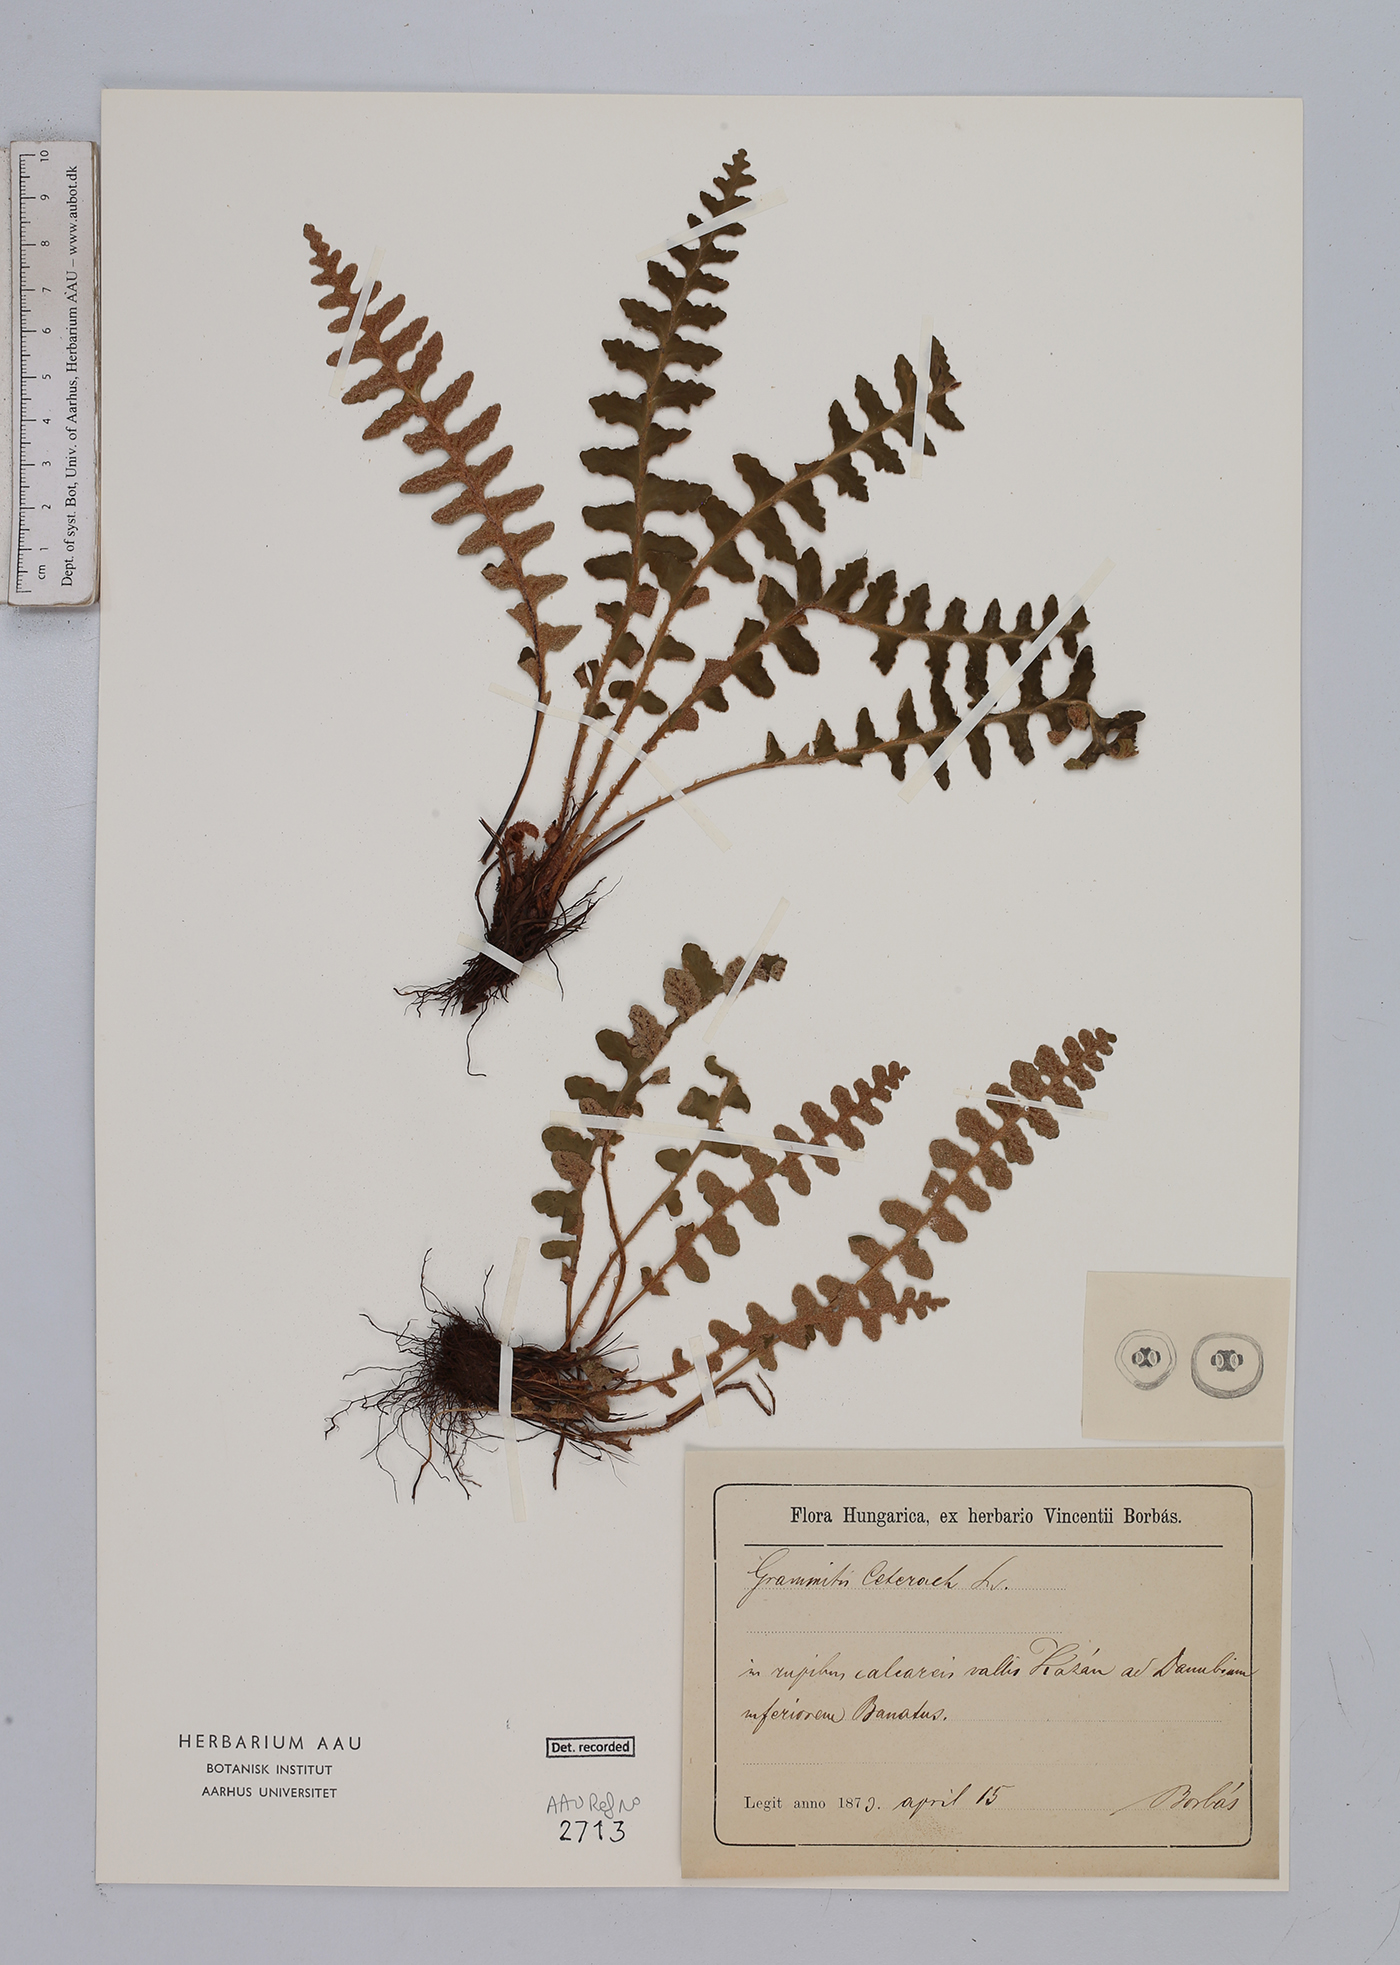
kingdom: Plantae
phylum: Tracheophyta
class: Polypodiopsida
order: Polypodiales
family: Aspleniaceae
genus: Asplenium
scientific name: Asplenium ceterach
